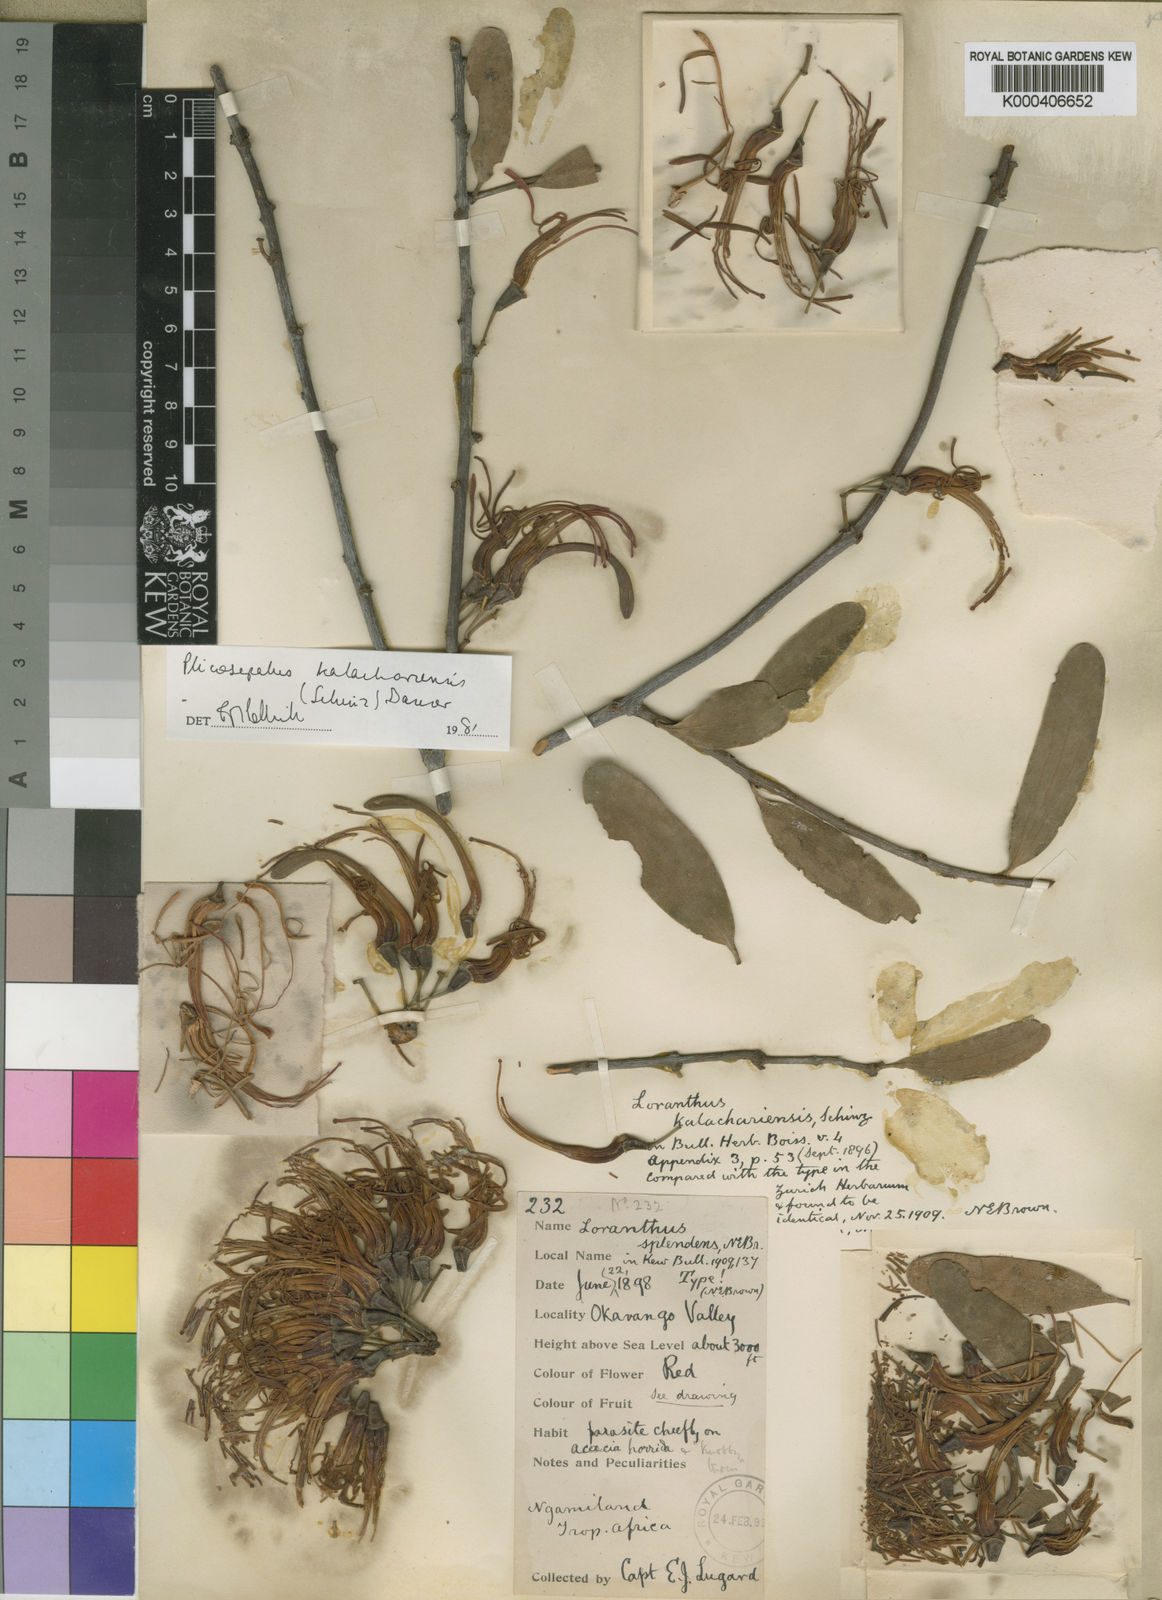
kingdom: Plantae
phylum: Tracheophyta
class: Magnoliopsida
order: Santalales
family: Loranthaceae
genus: Plicosepalus
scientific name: Plicosepalus kalachariensis
